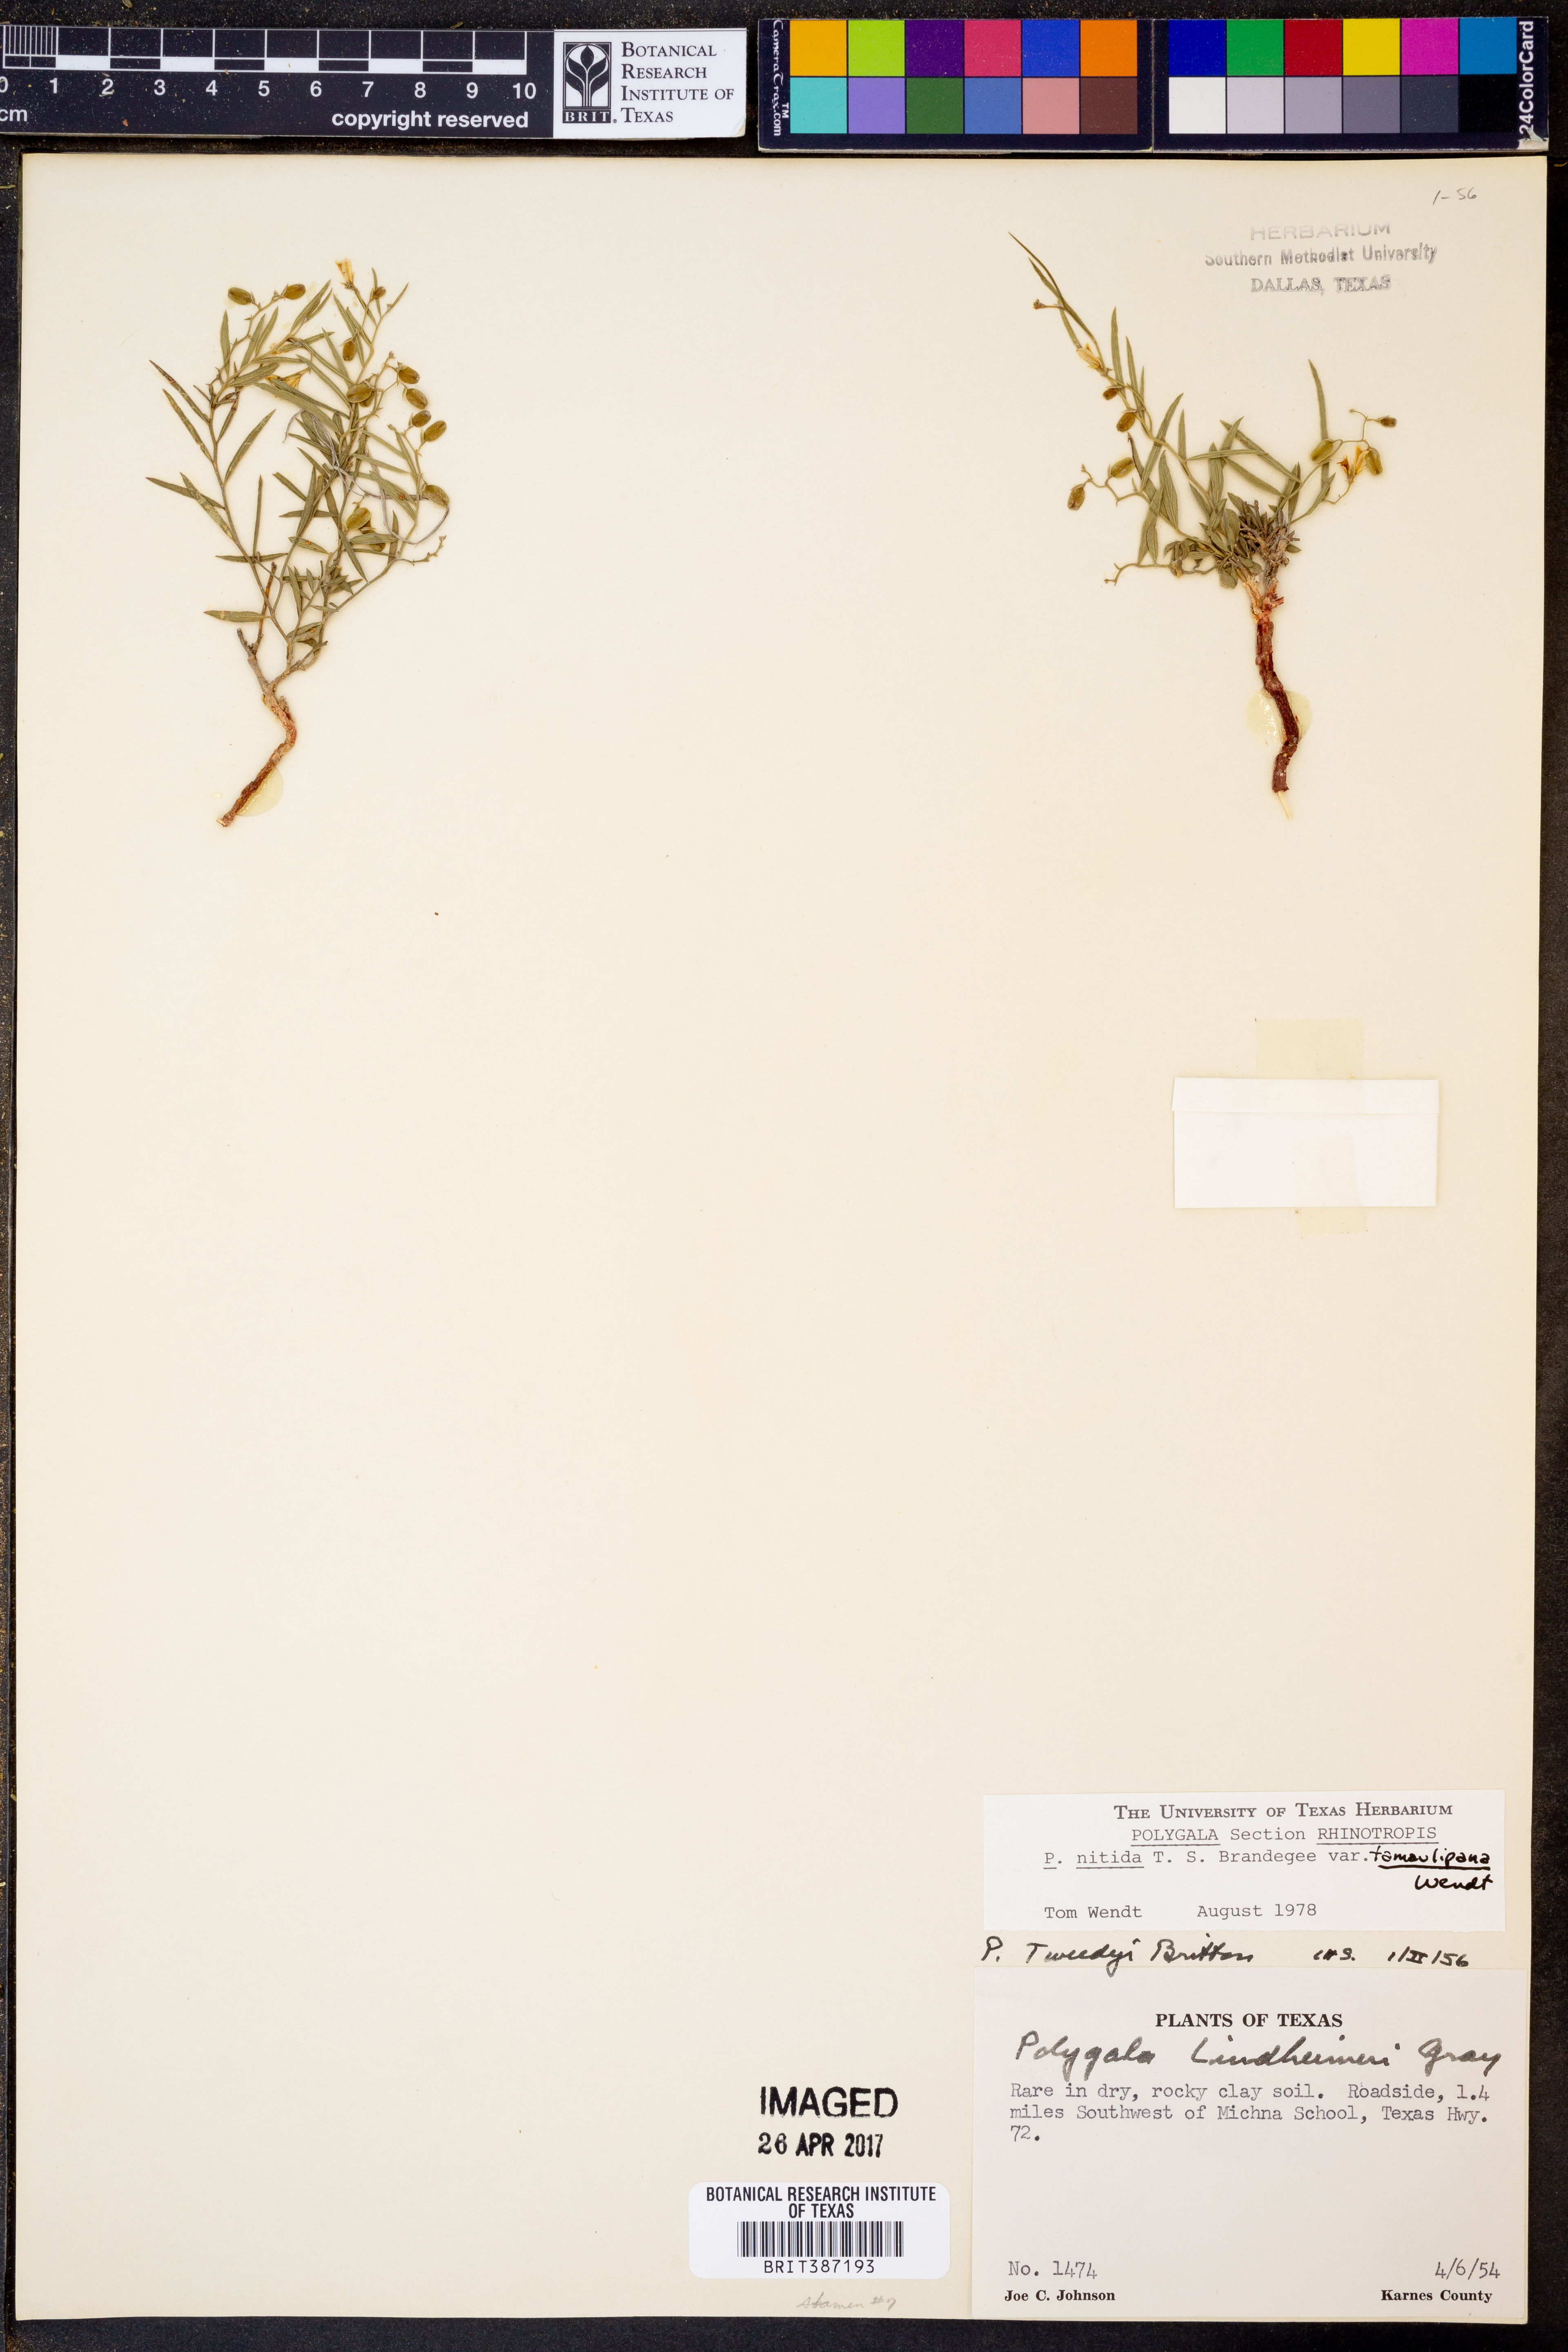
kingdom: Plantae
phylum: Tracheophyta
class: Magnoliopsida
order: Fabales
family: Polygalaceae
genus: Rhinotropis
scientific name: Rhinotropis nitida
